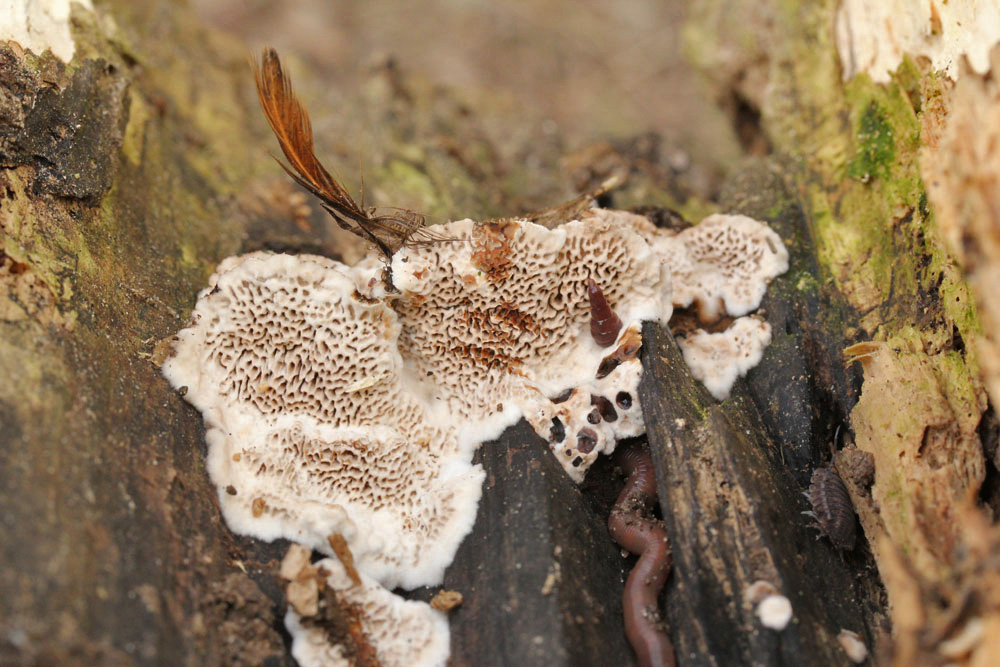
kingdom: Fungi
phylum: Basidiomycota
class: Agaricomycetes
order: Polyporales
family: Polyporaceae
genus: Podofomes
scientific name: Podofomes mollis
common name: blød begporesvamp
